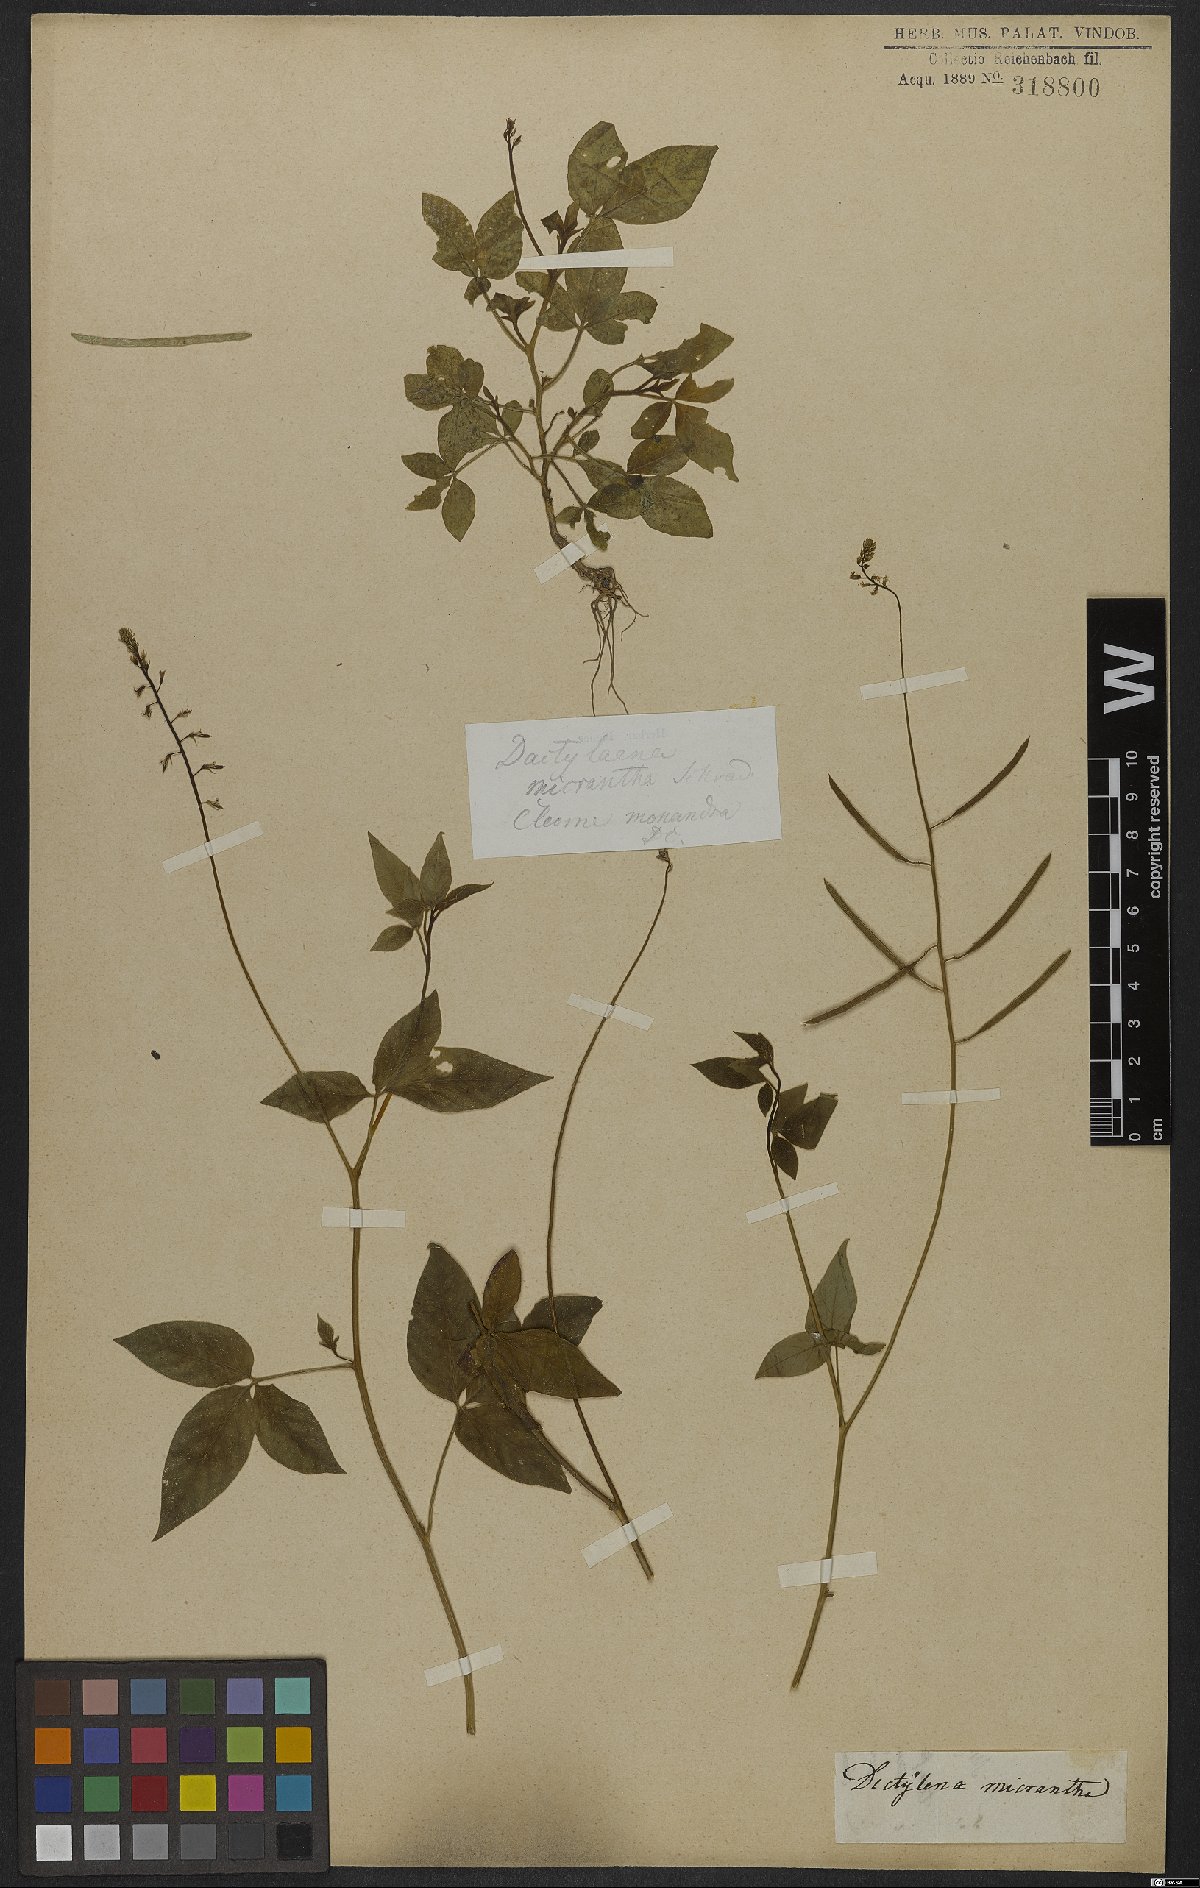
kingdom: Plantae
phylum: Tracheophyta
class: Magnoliopsida
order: Brassicales
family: Cleomaceae
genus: Dactylaena
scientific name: Dactylaena monandra
